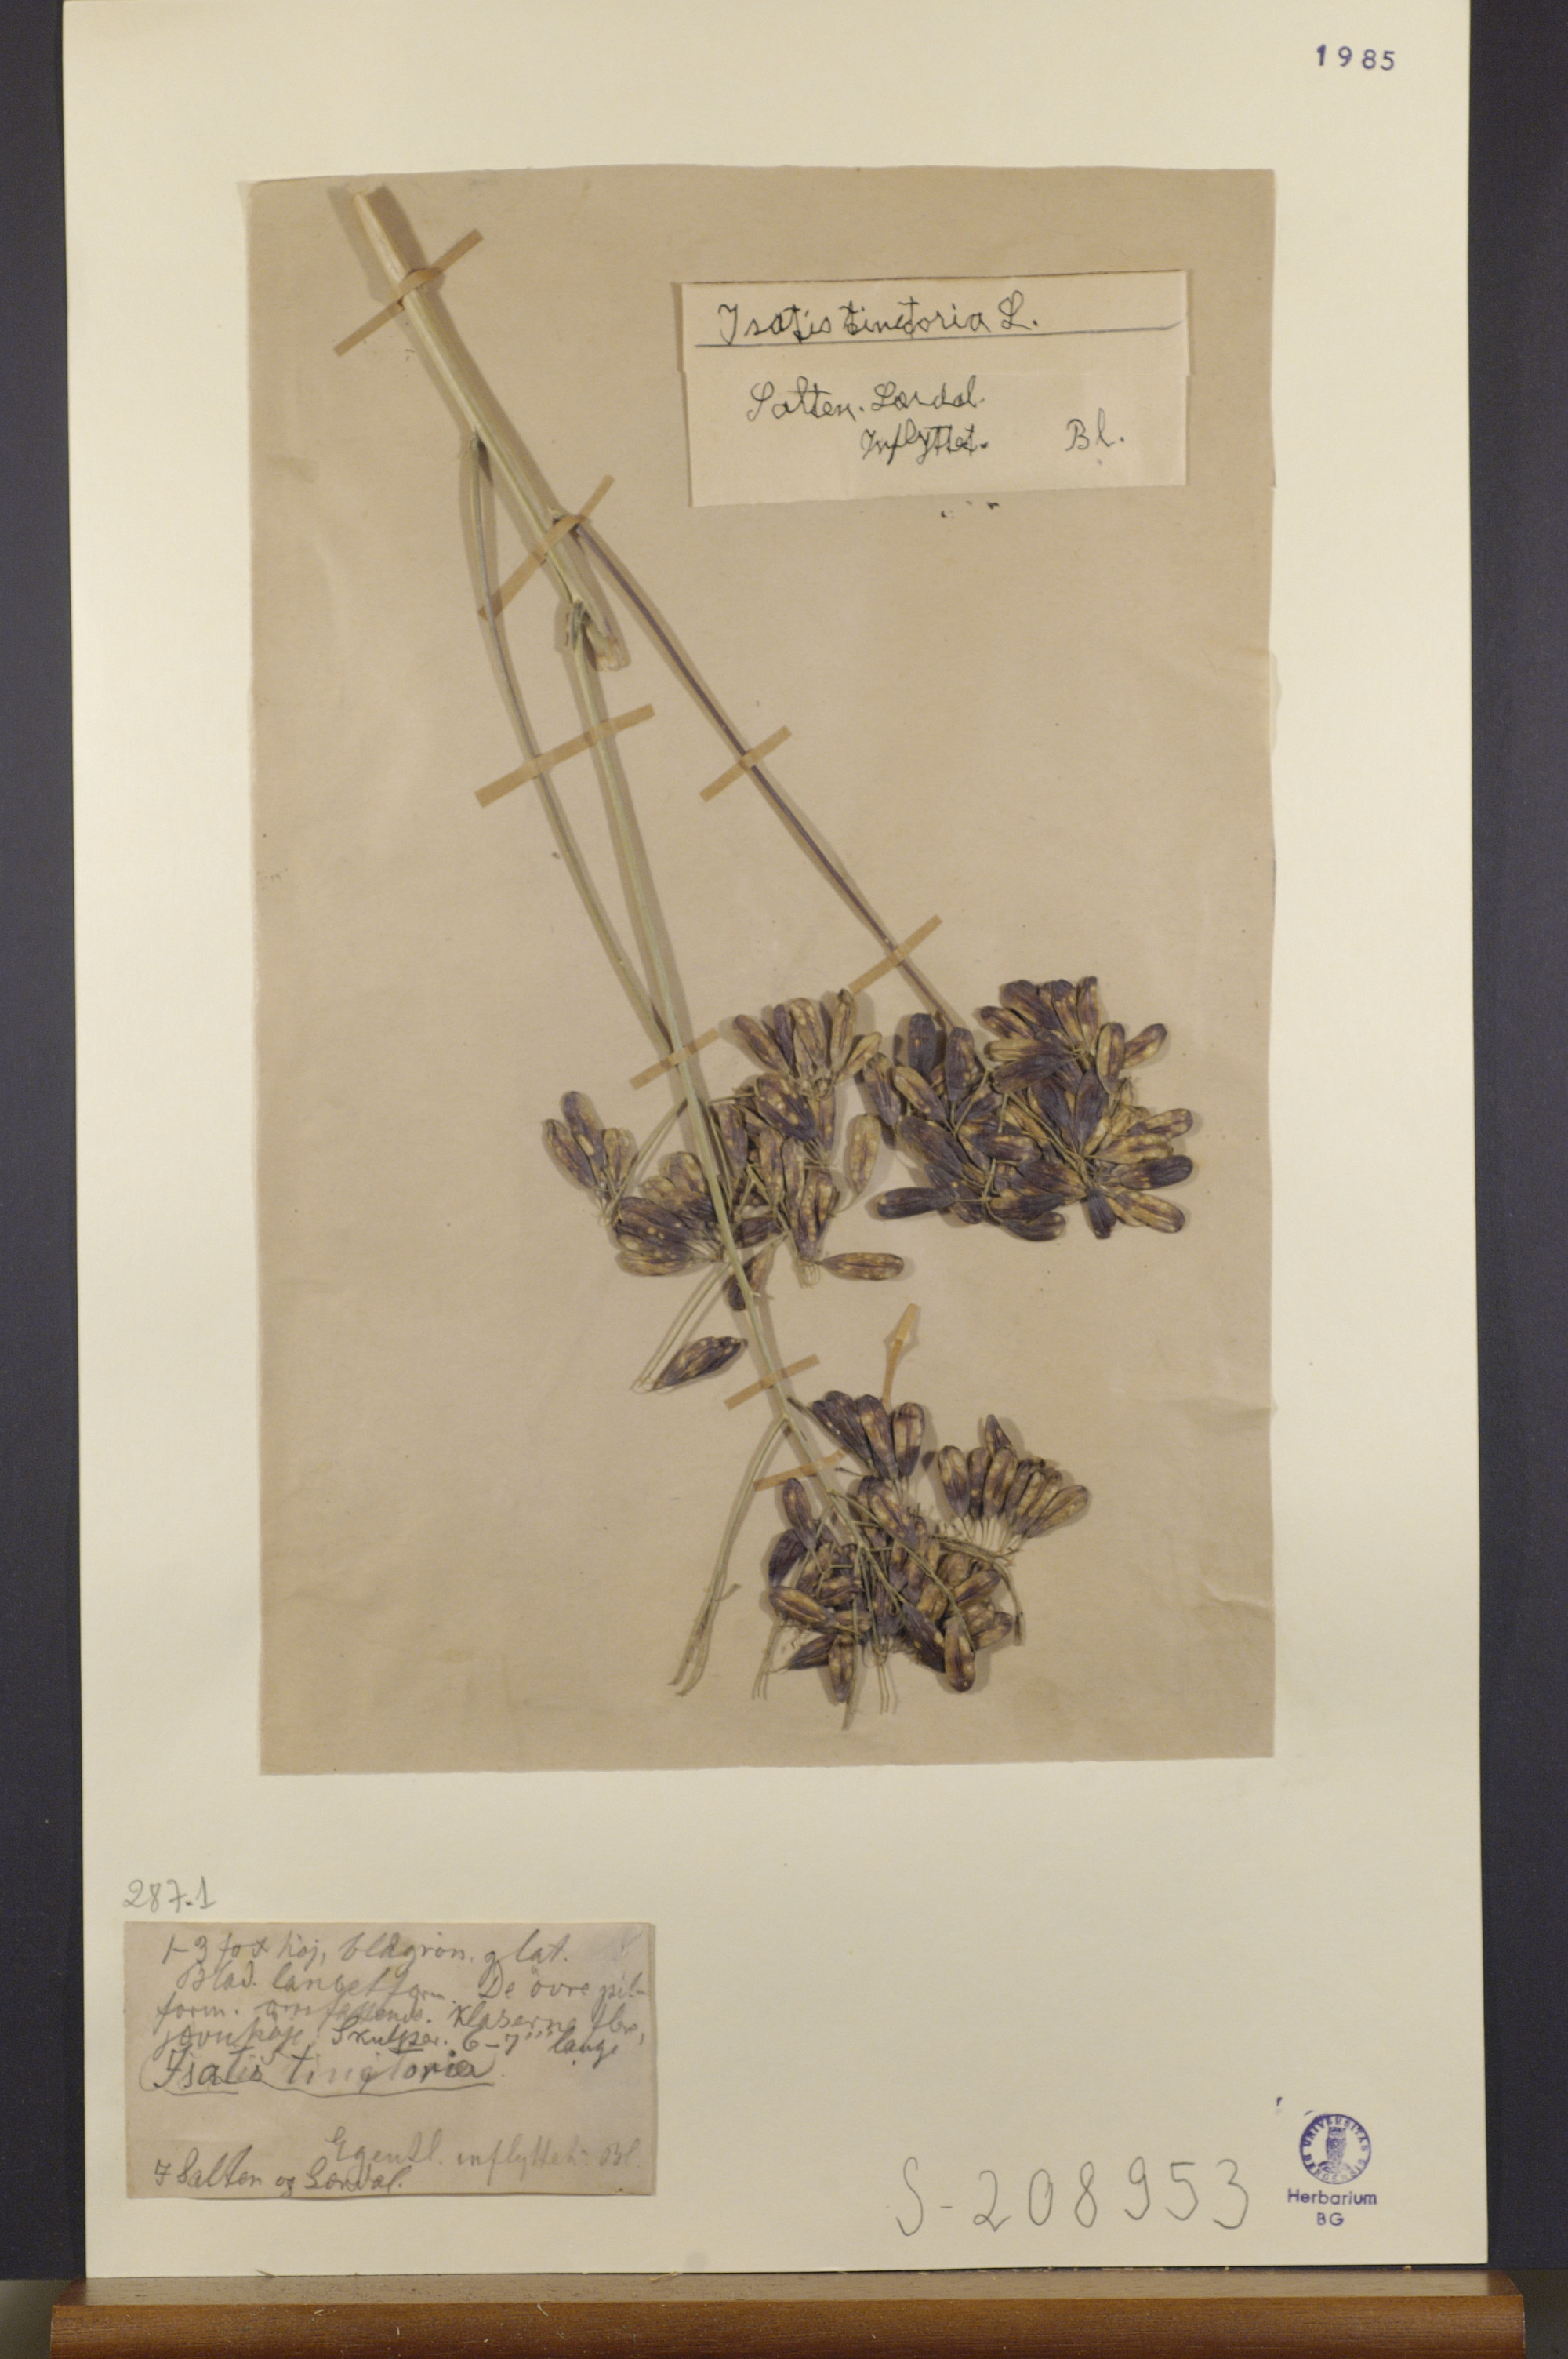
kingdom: Plantae
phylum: Tracheophyta
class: Magnoliopsida
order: Brassicales
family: Brassicaceae
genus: Isatis
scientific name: Isatis tinctoria
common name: Woad
